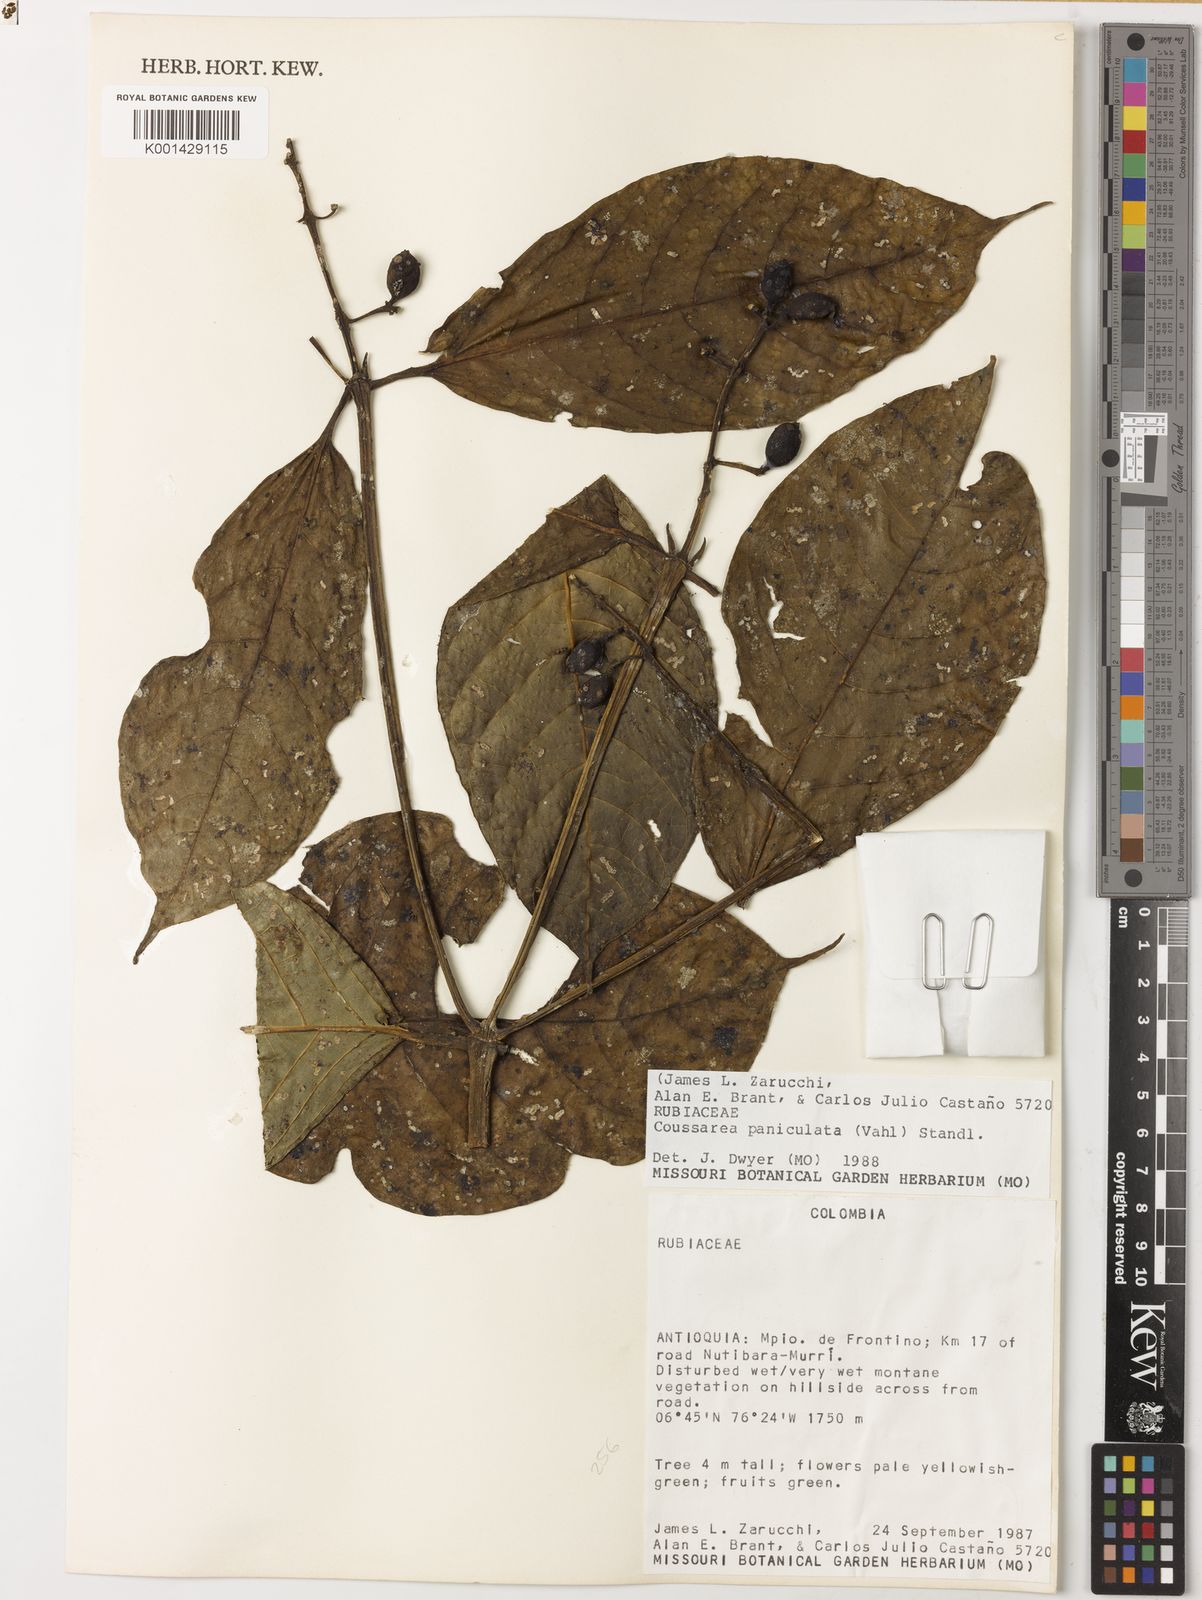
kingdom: Plantae
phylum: Tracheophyta
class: Magnoliopsida
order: Gentianales
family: Rubiaceae
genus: Coussarea
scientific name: Coussarea paniculata
